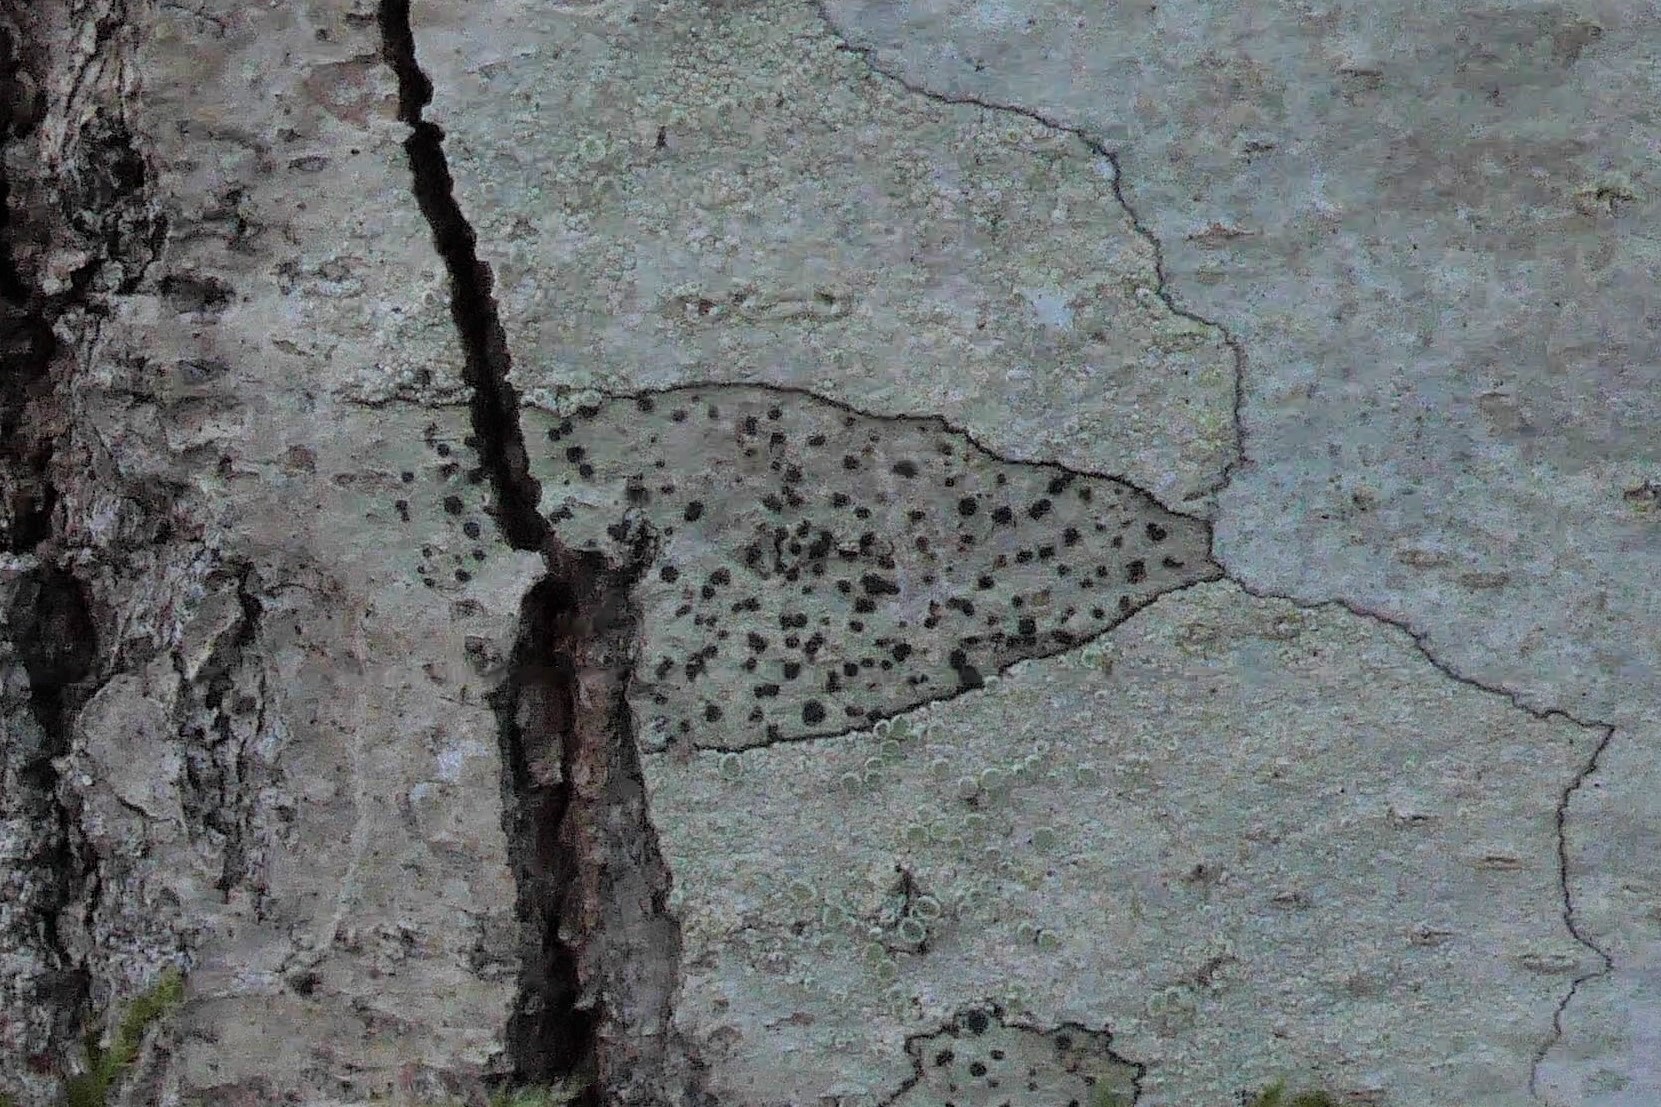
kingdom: Fungi
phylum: Ascomycota
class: Lecanoromycetes
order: Lecanorales
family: Lecanoraceae
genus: Lecidella
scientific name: Lecidella elaeochroma
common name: grågrøn skivelav
